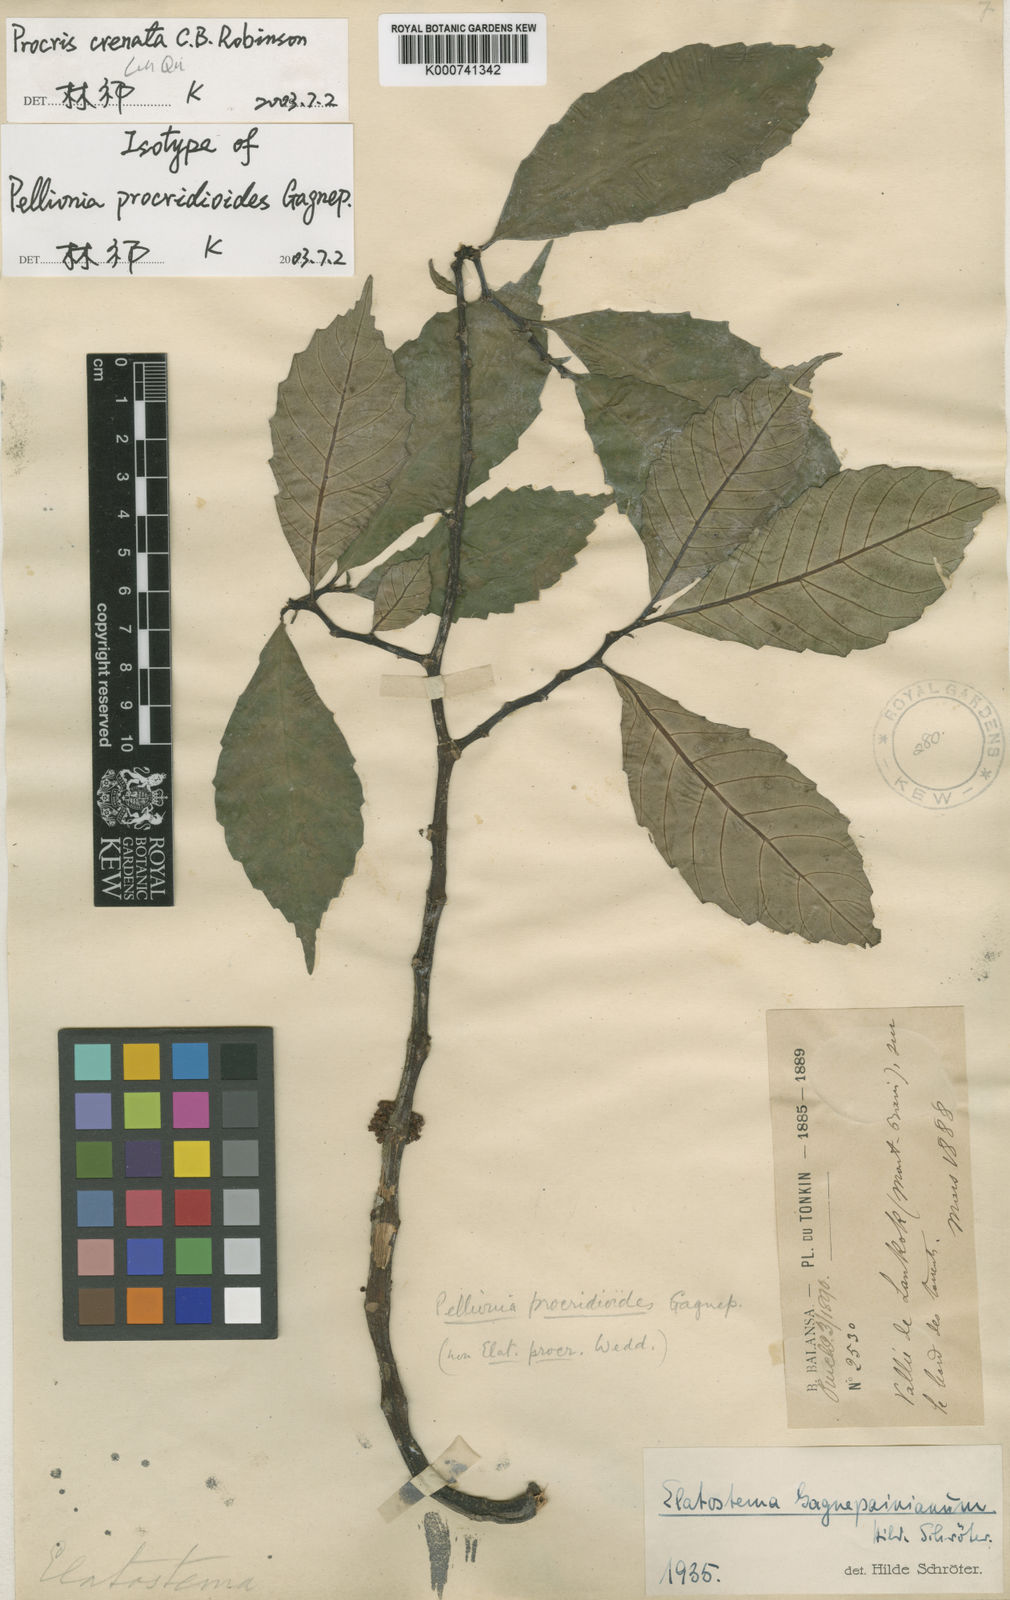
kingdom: Plantae
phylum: Tracheophyta
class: Magnoliopsida
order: Rosales
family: Urticaceae
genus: Procris
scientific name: Procris crenata
